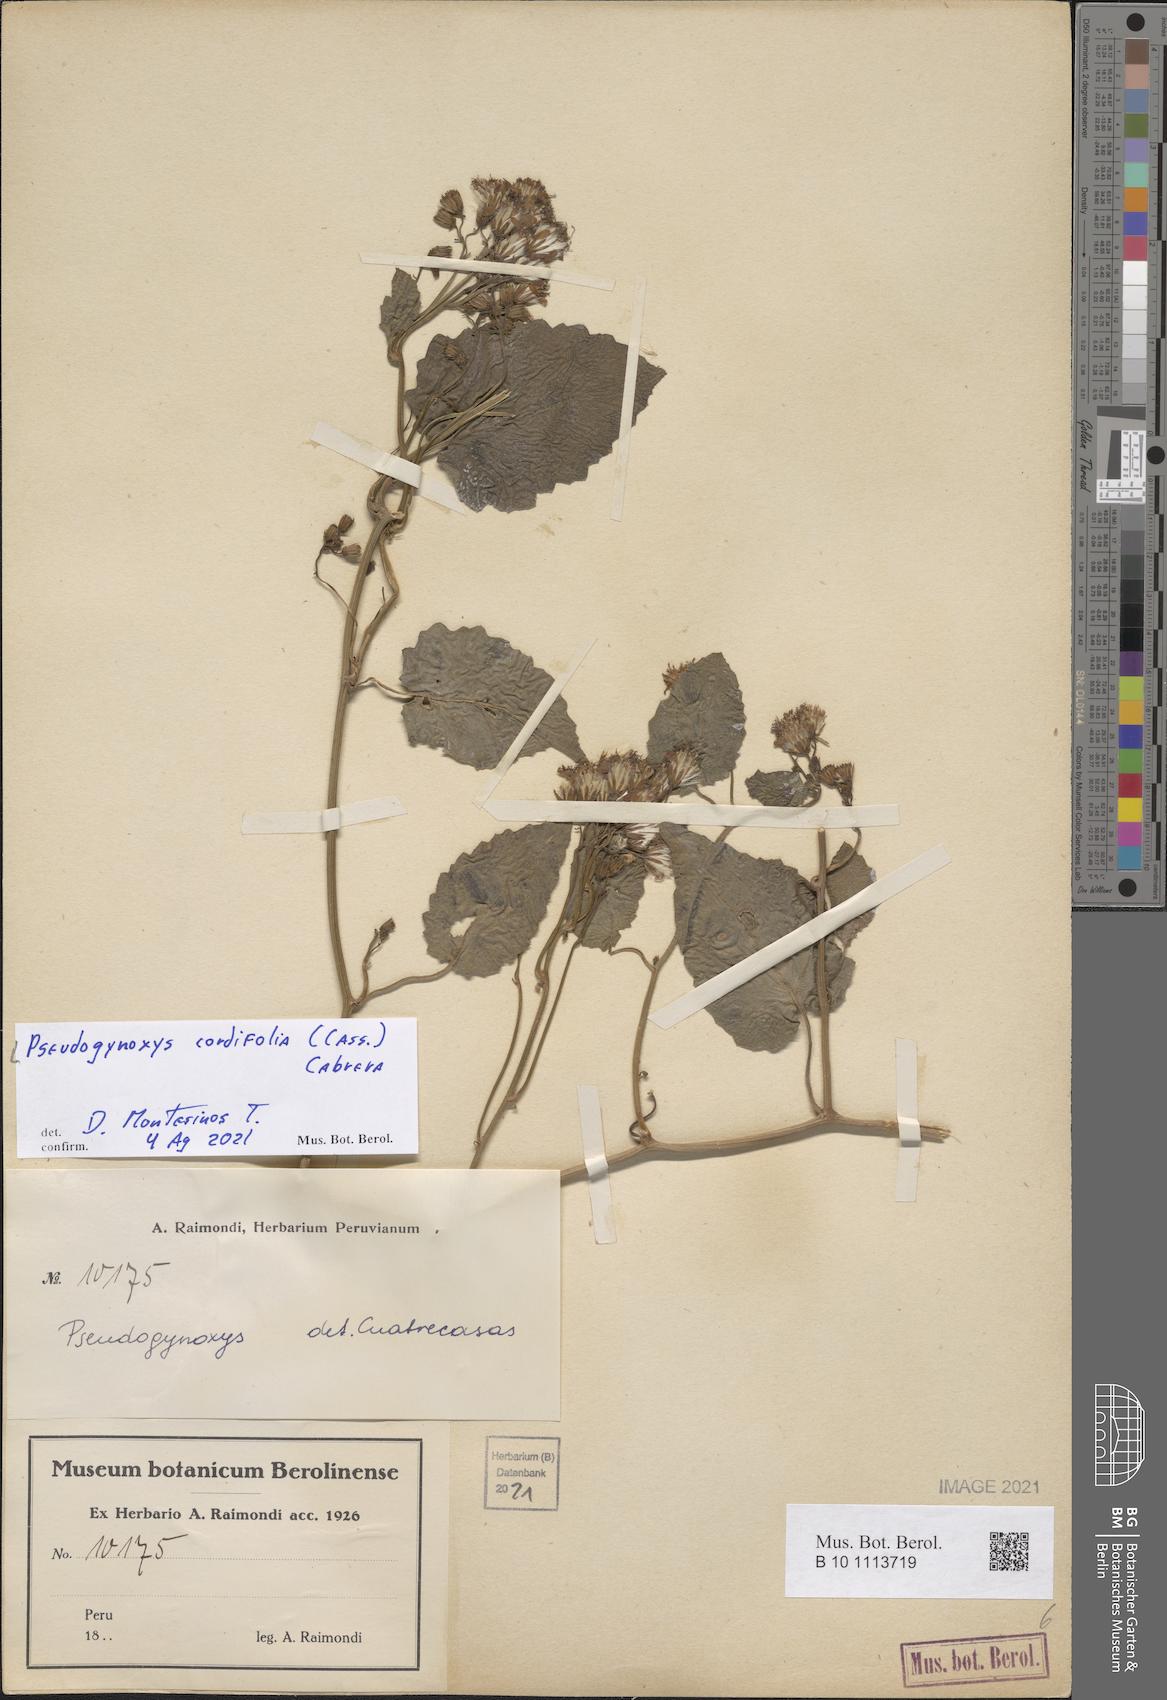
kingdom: Plantae
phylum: Tracheophyta
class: Magnoliopsida
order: Asterales
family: Asteraceae
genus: Pseudogynoxys
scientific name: Pseudogynoxys chenopodioides
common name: Mexican flamevine
